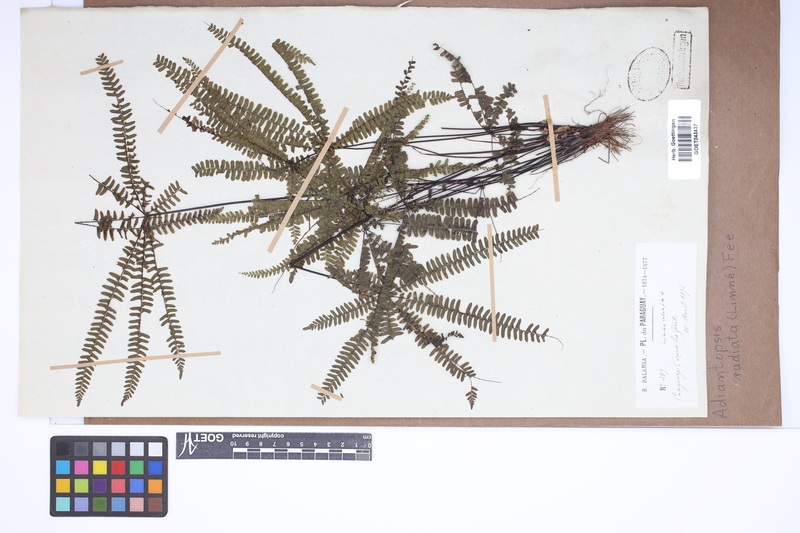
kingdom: Plantae
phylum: Tracheophyta
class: Polypodiopsida
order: Polypodiales
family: Pteridaceae
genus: Adiantopsis
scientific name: Adiantopsis radiata
